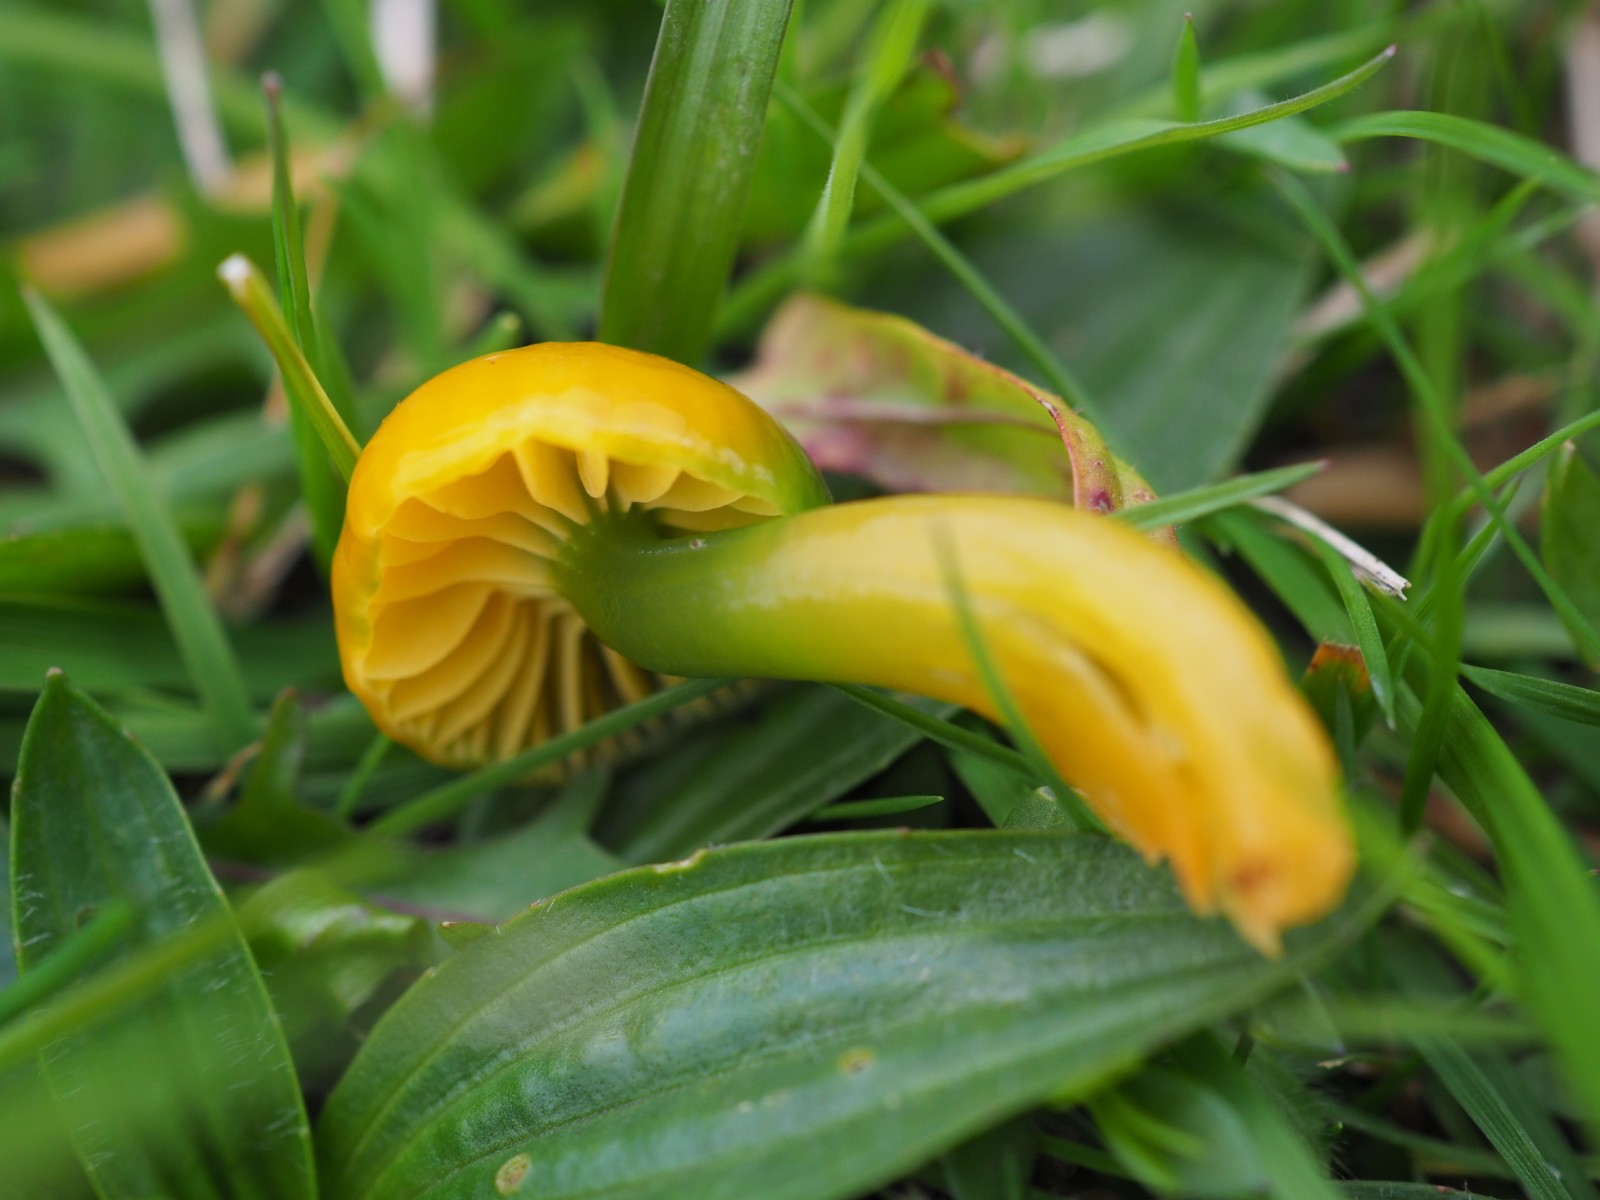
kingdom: Fungi
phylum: Basidiomycota
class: Agaricomycetes
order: Agaricales
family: Hygrophoraceae
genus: Gliophorus
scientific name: Gliophorus laetus
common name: brusk-vokshat
